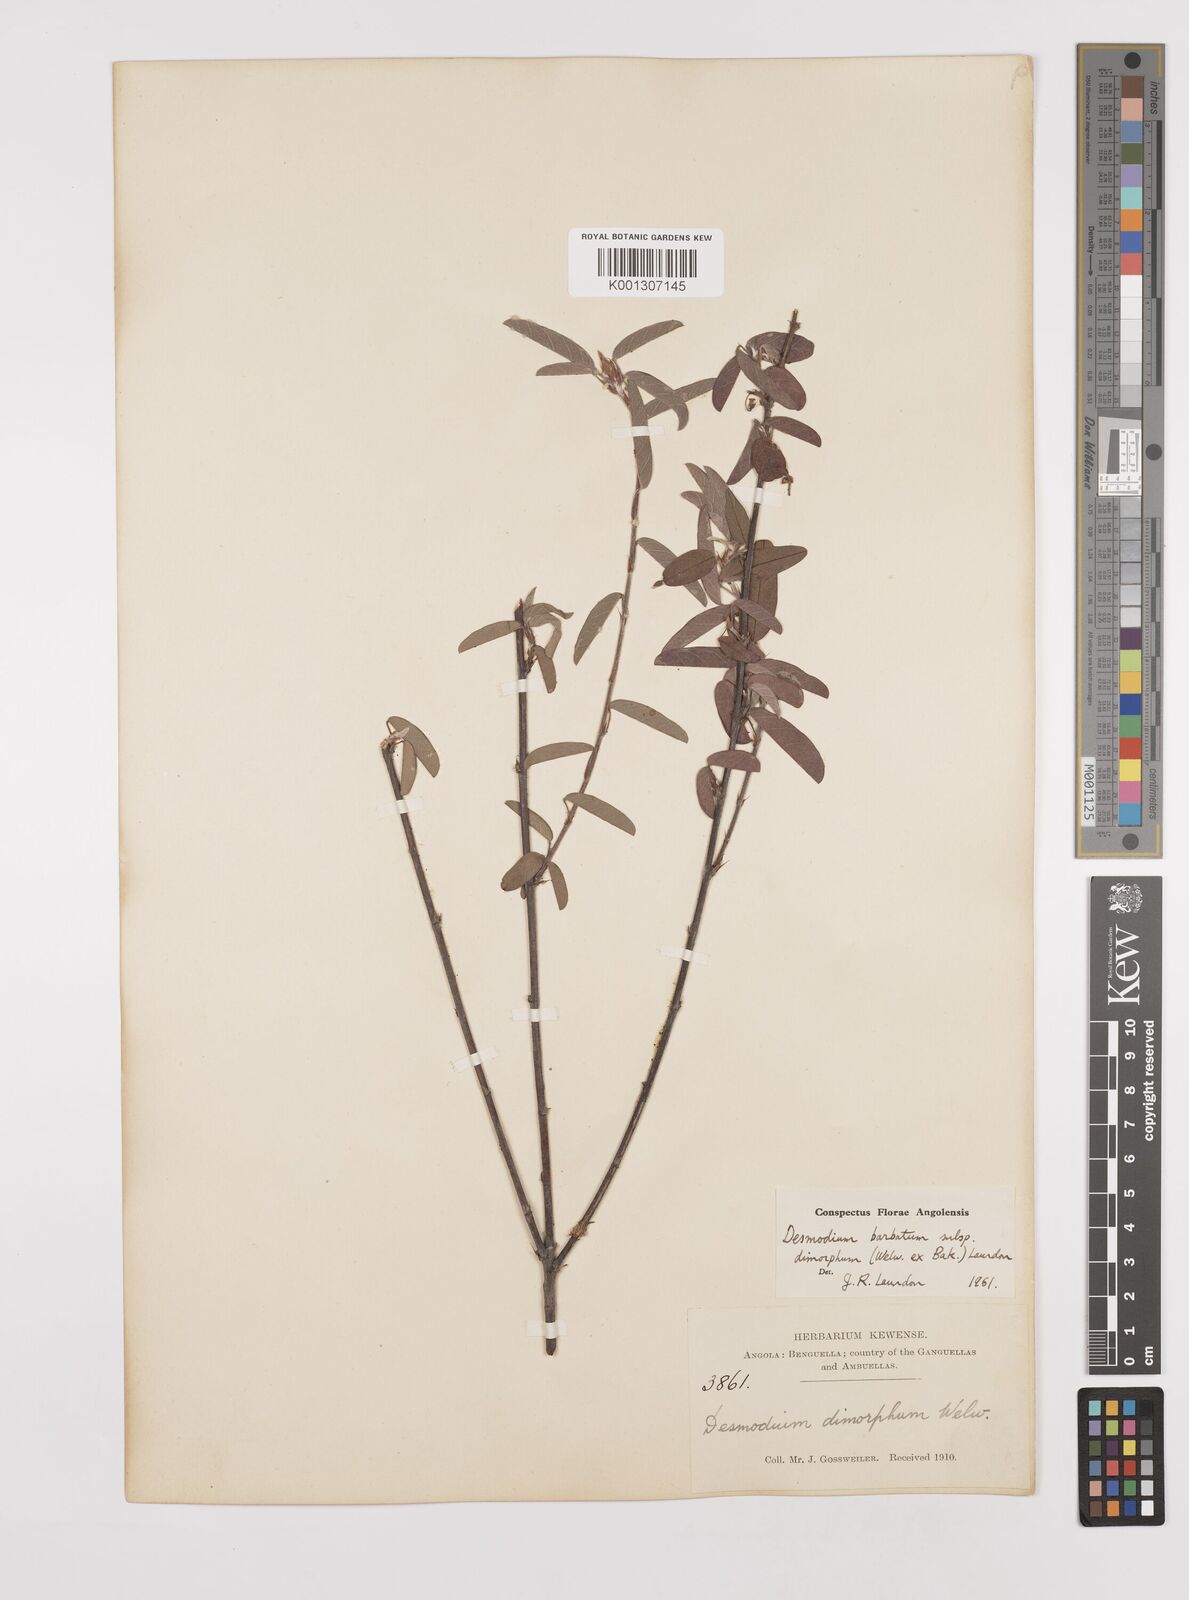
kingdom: Plantae
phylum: Tracheophyta
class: Magnoliopsida
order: Fabales
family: Fabaceae
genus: Grona
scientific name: Grona barbata
